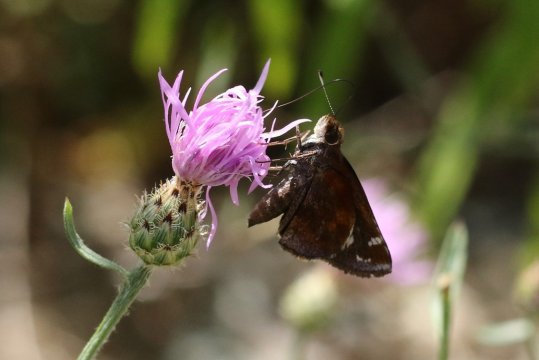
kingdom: Animalia
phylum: Arthropoda
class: Insecta
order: Lepidoptera
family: Hesperiidae
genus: Lon
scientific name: Lon zabulon
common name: Zabulon Skipper
